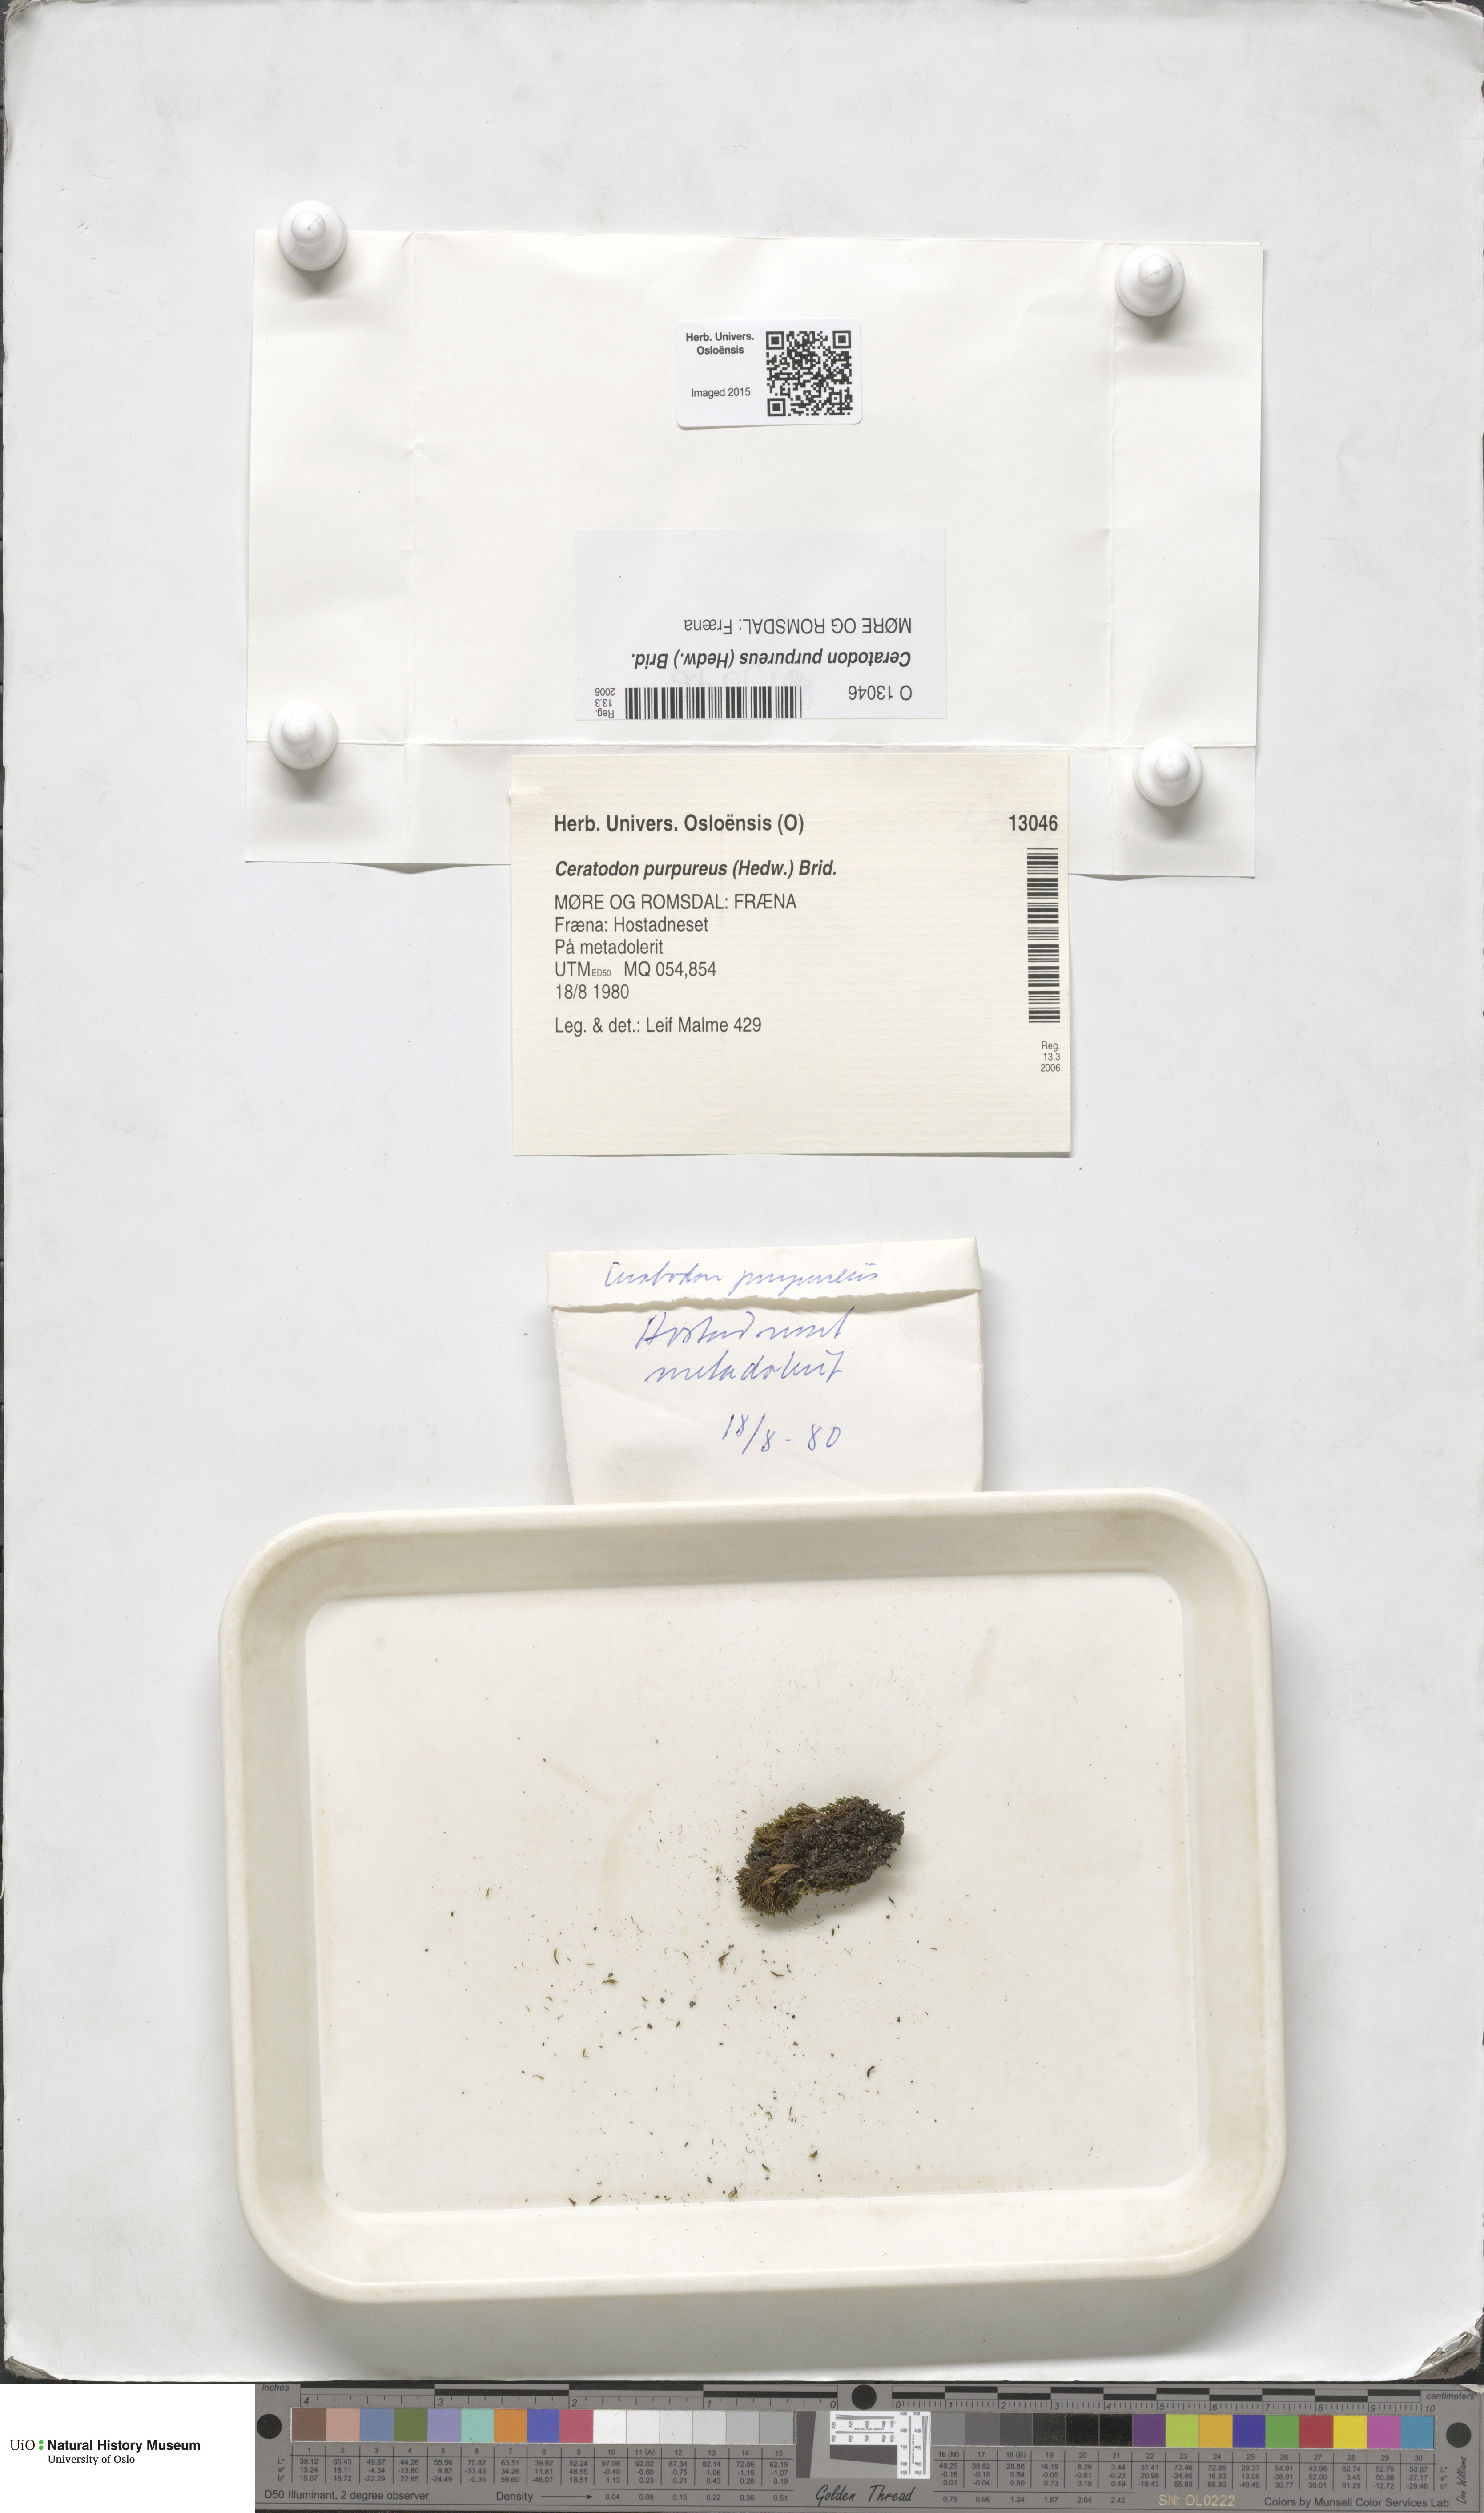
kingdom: Plantae
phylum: Bryophyta
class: Bryopsida
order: Dicranales
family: Ditrichaceae
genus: Ceratodon
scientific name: Ceratodon purpureus
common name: Redshank
